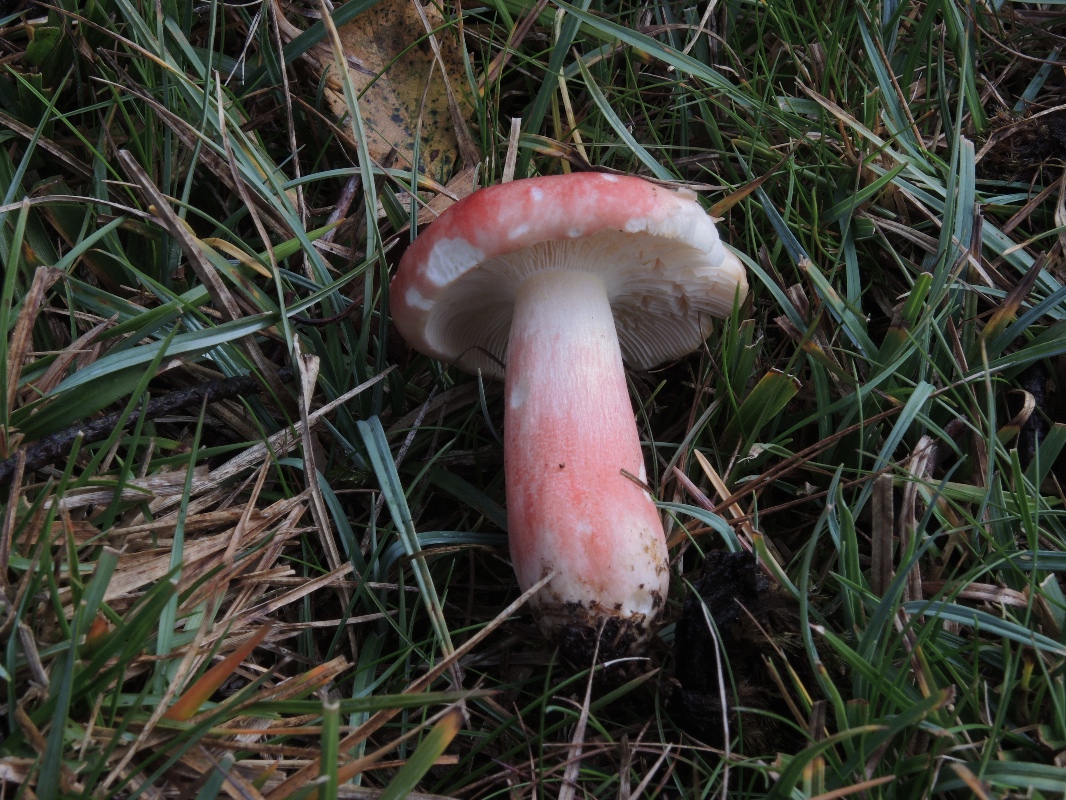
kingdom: Fungi
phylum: Basidiomycota
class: Agaricomycetes
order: Russulales
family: Russulaceae
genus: Russula
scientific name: Russula sanguinea
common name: blodrød skørhat
